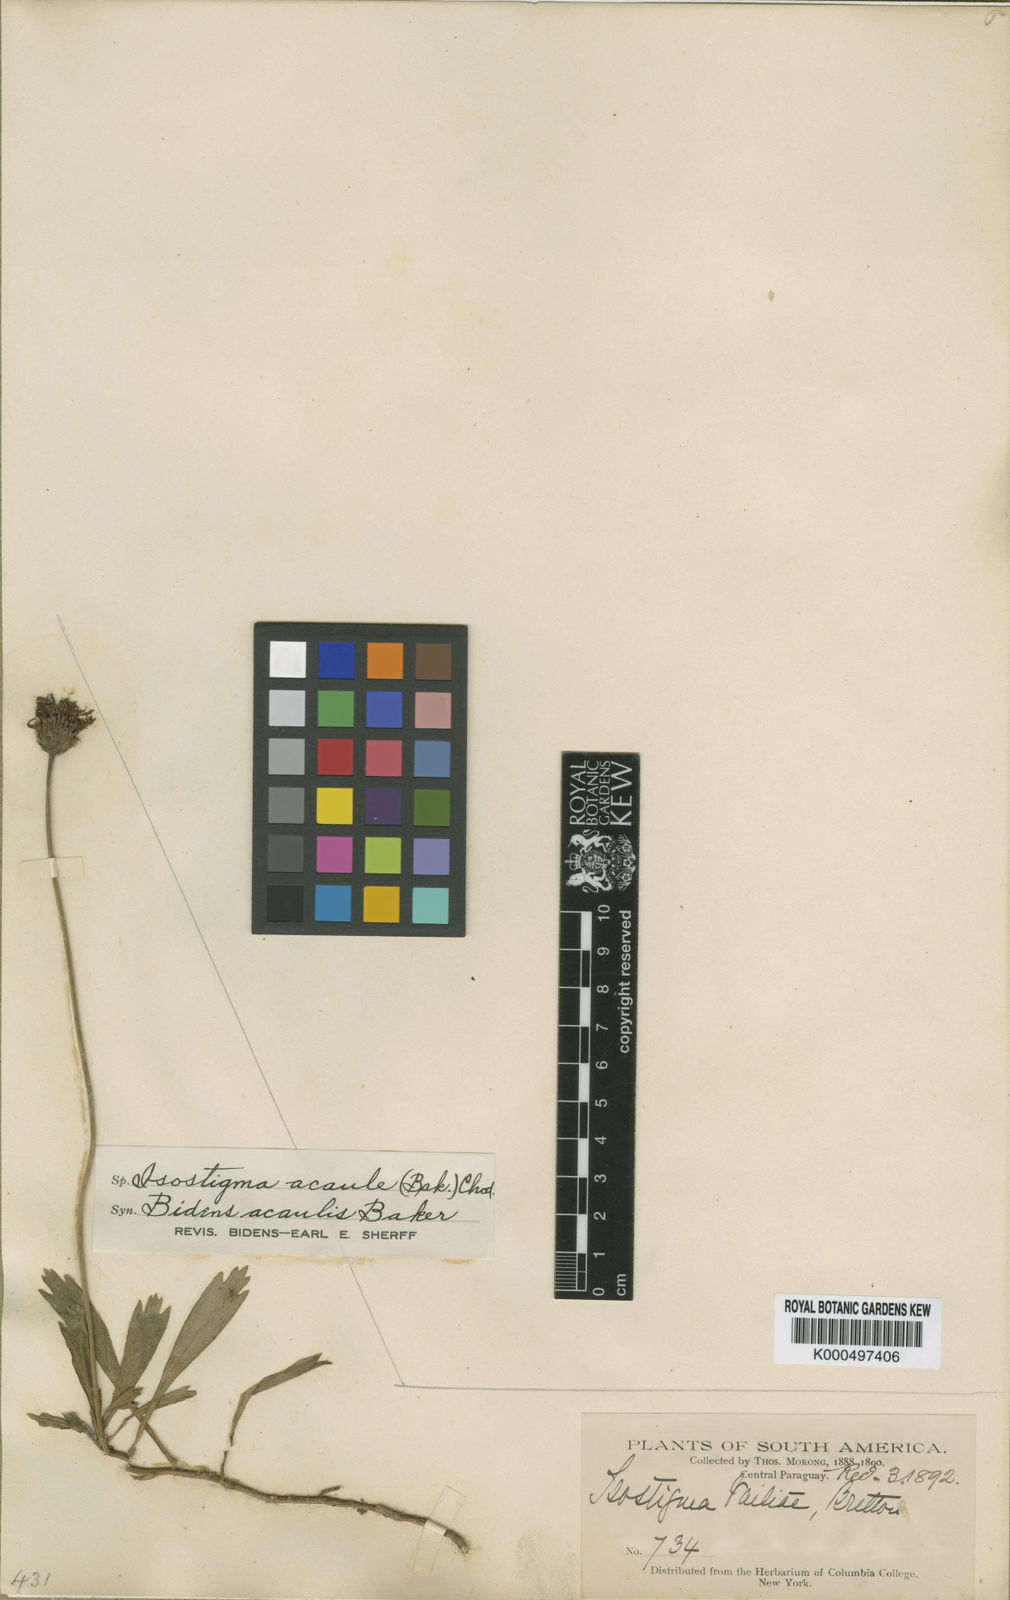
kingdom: Plantae
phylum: Tracheophyta
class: Magnoliopsida
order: Asterales
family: Asteraceae
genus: Isostigma
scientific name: Isostigma acaule
